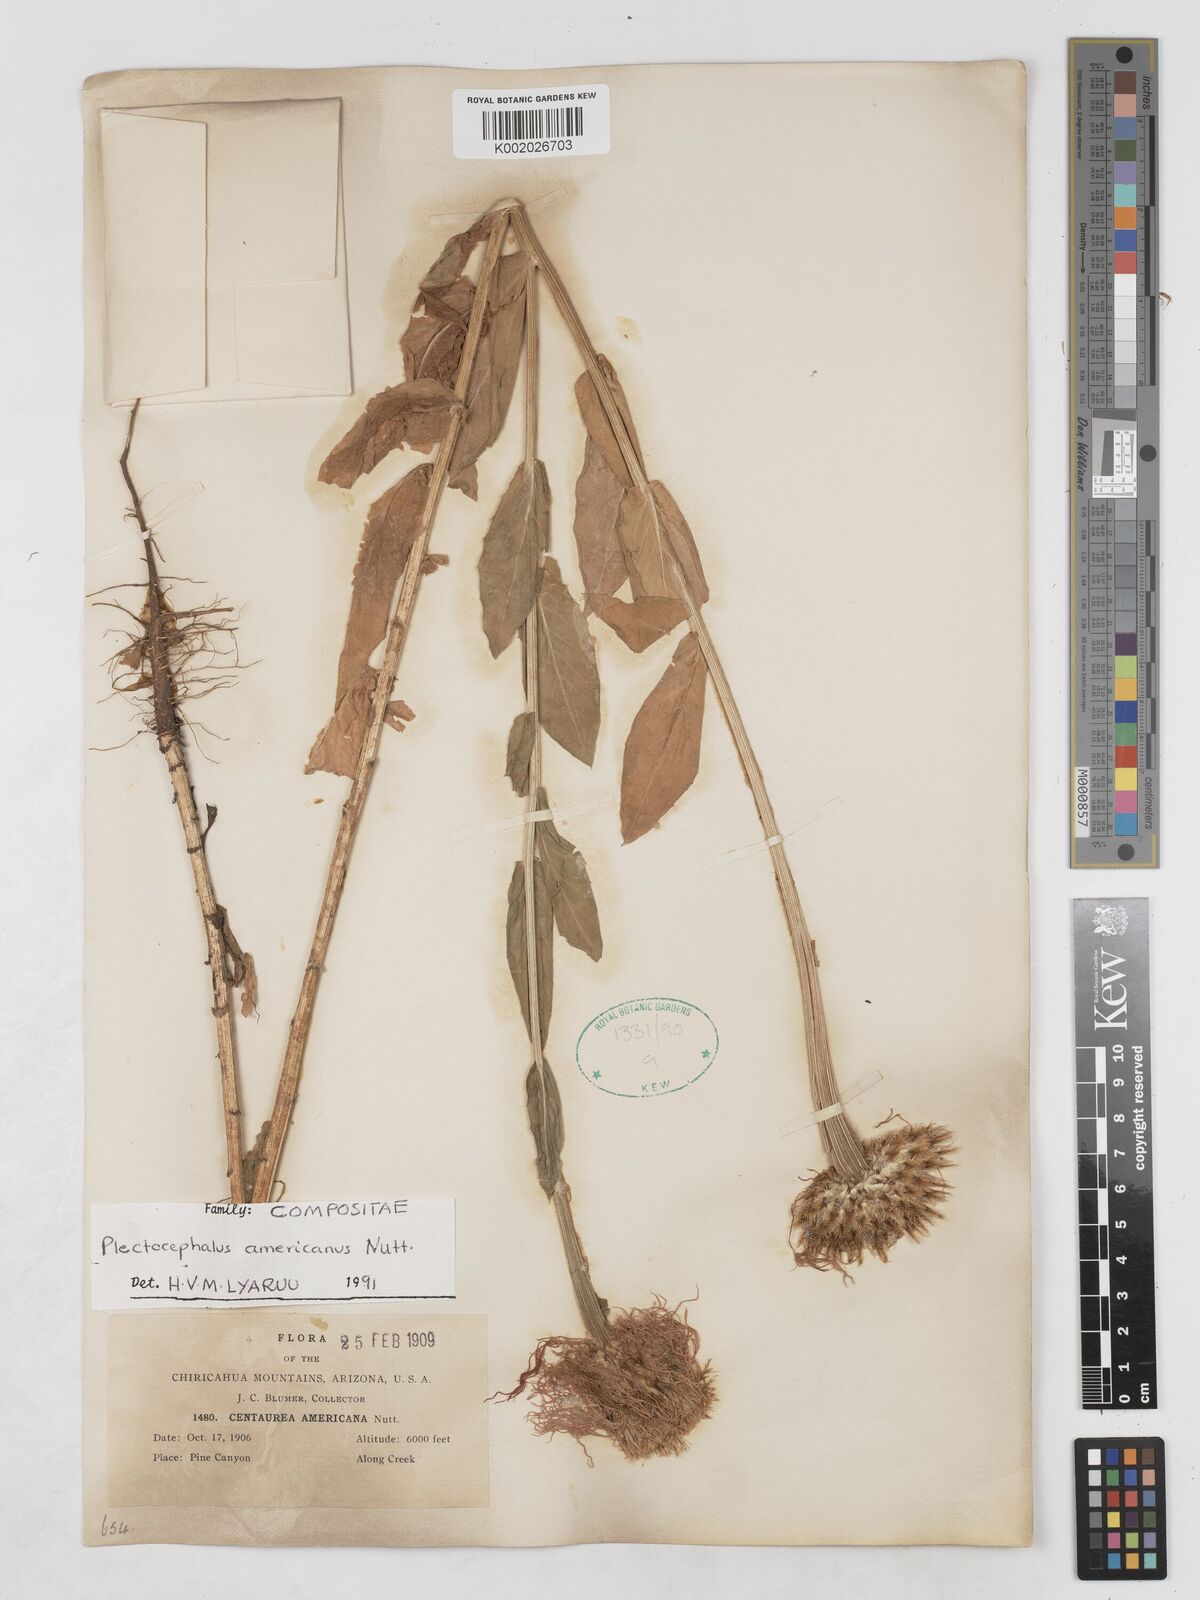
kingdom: Plantae
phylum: Tracheophyta
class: Magnoliopsida
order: Asterales
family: Asteraceae
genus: Plectocephalus
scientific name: Plectocephalus americanus
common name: American basket-flower
